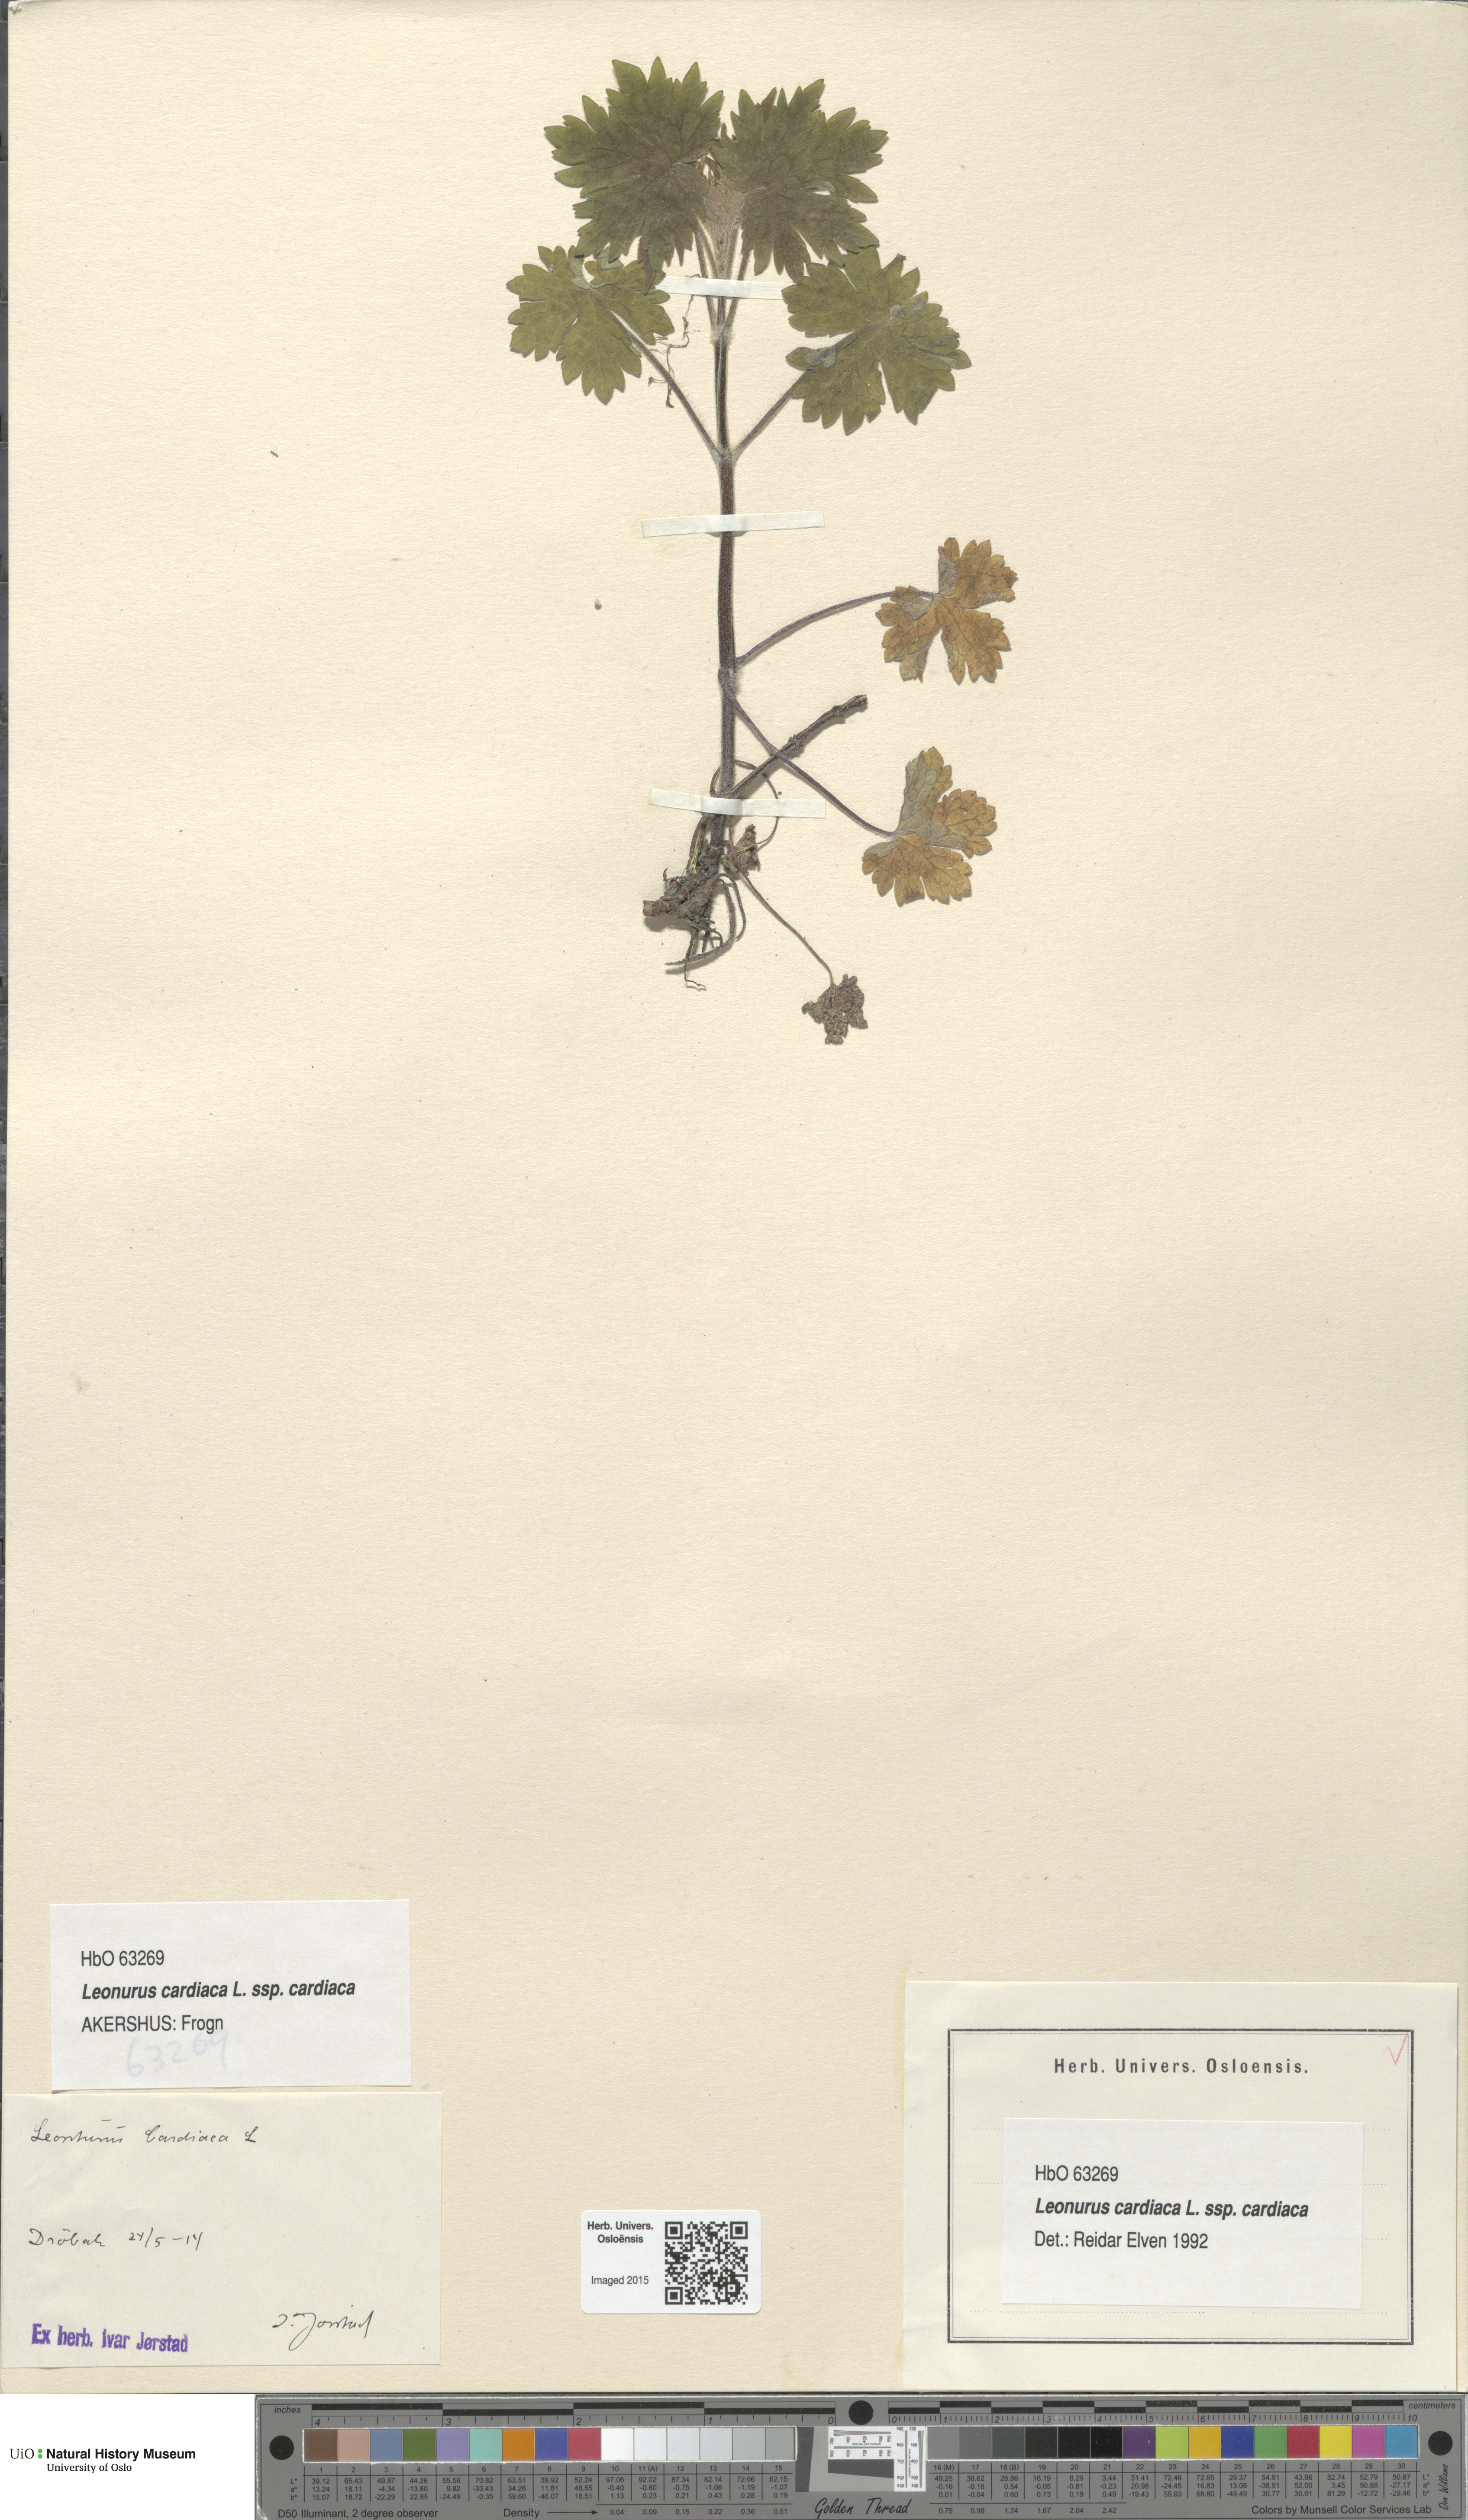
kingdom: Plantae
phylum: Tracheophyta
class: Magnoliopsida
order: Lamiales
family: Lamiaceae
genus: Leonurus
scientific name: Leonurus cardiaca
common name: Motherwort
